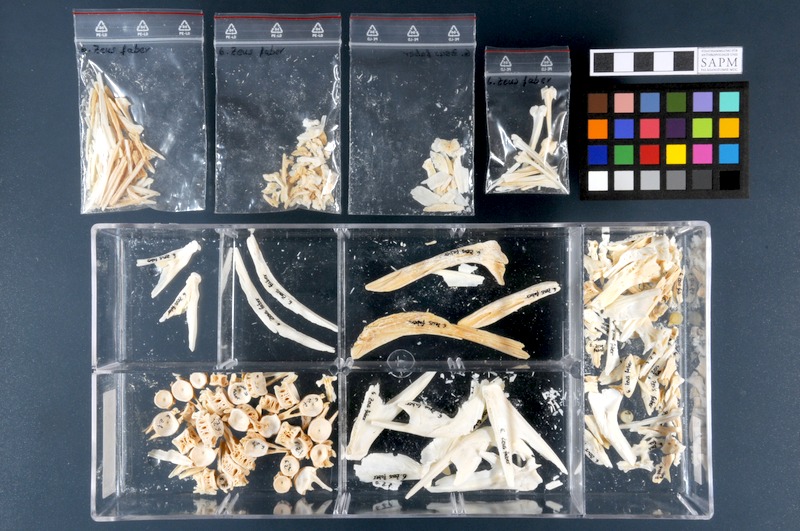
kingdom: Animalia
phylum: Chordata
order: Zeiformes
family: Zeidae
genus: Zeus
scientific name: Zeus faber
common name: John dory
